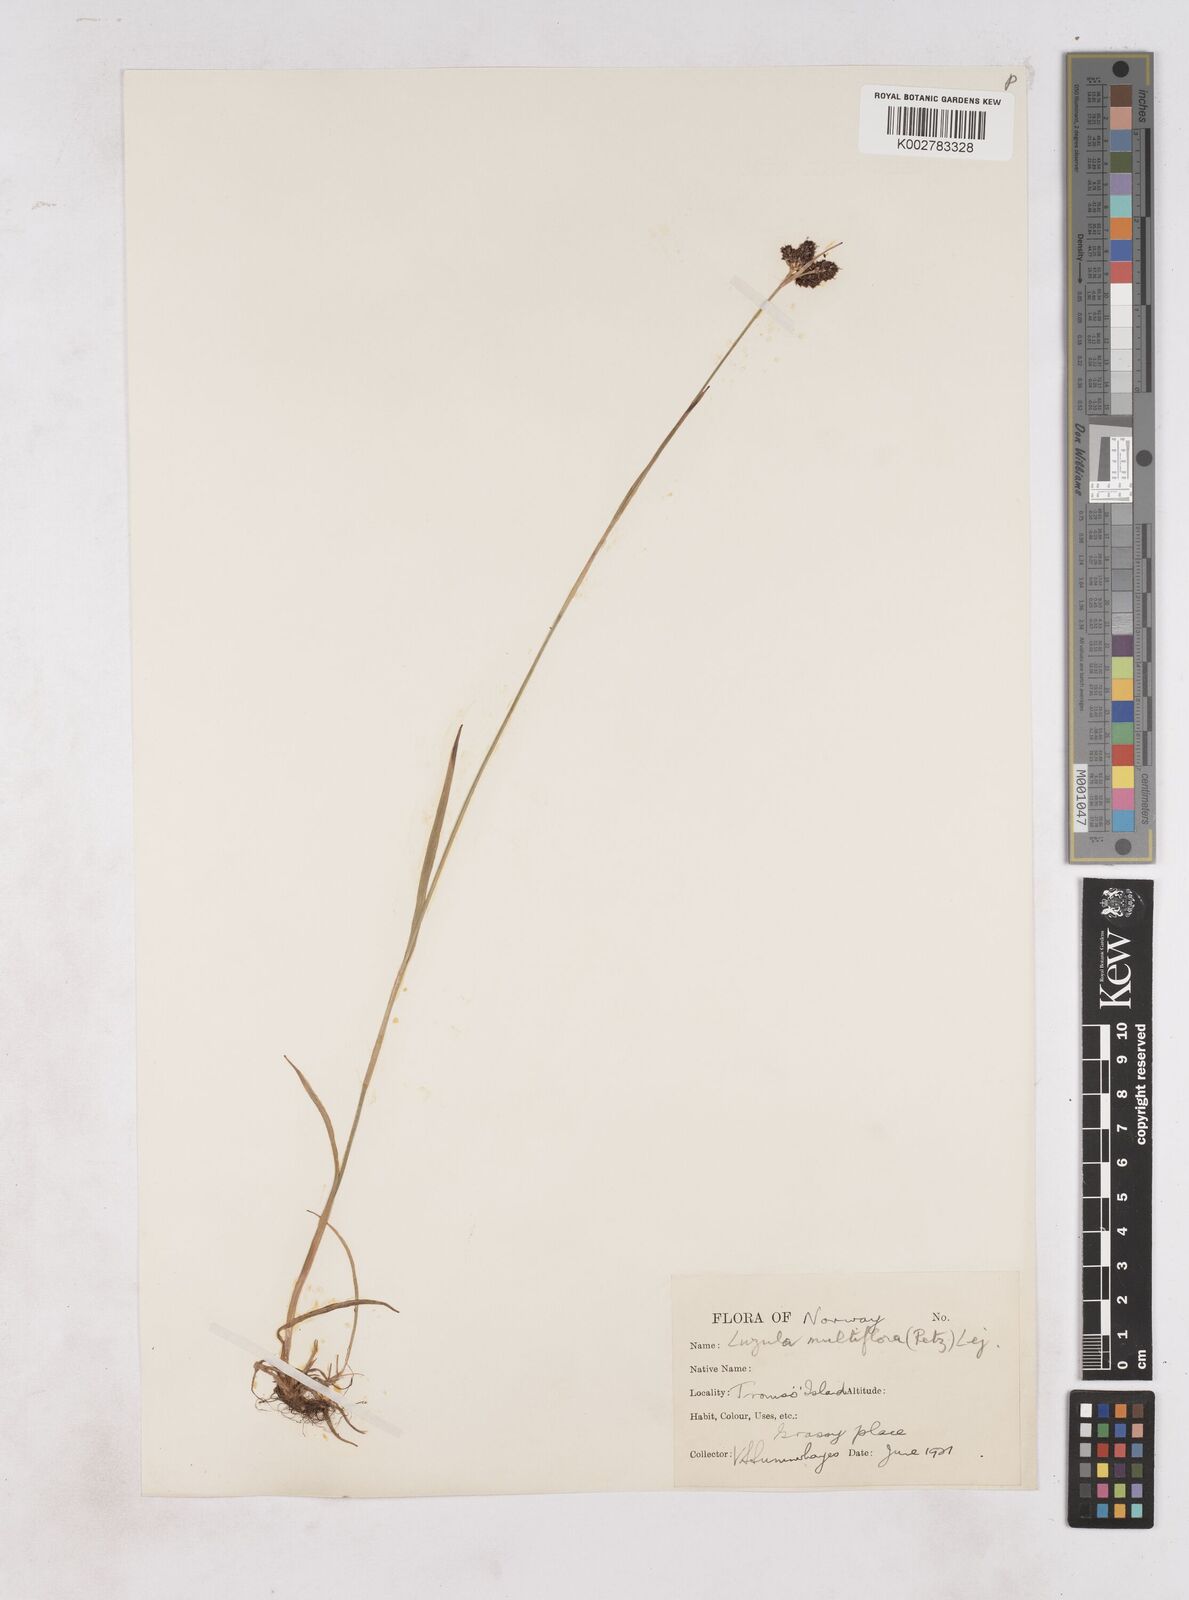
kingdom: Plantae
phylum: Tracheophyta
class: Liliopsida
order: Poales
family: Juncaceae
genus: Luzula
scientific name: Luzula multiflora
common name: Heath wood-rush
